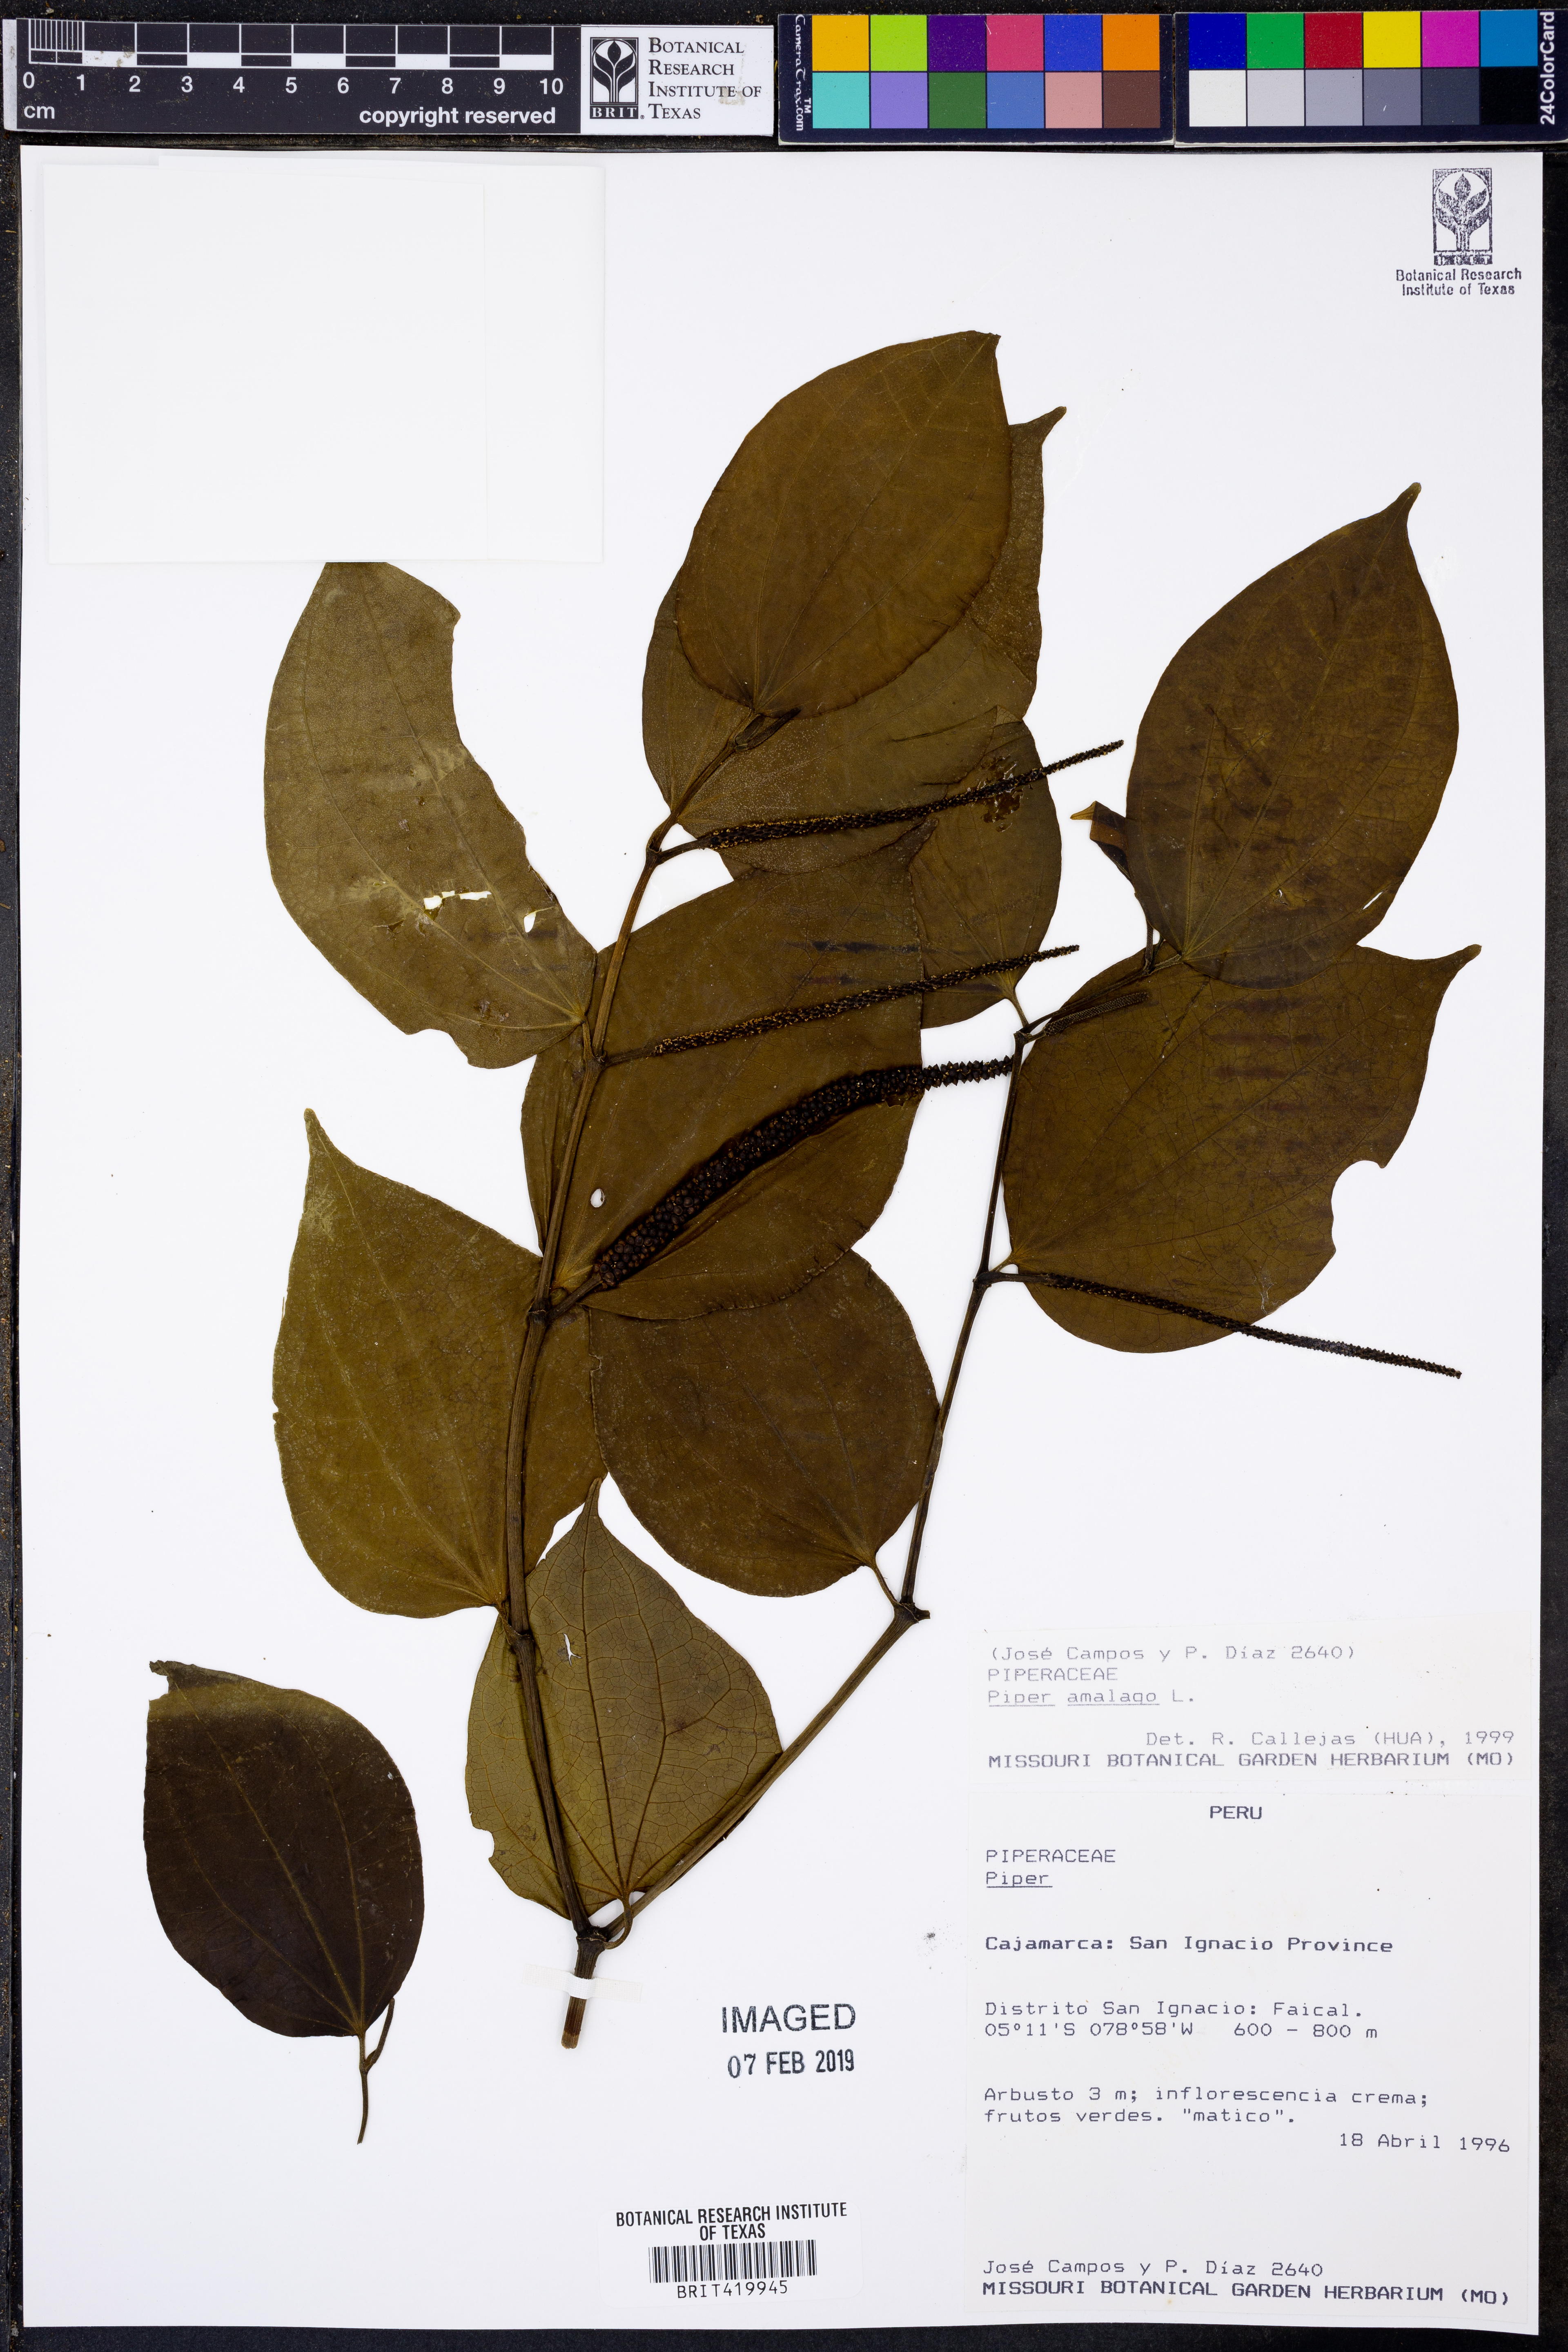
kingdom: Plantae
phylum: Tracheophyta
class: Magnoliopsida
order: Piperales
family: Piperaceae
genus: Piper
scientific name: Piper amalago
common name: Pepper-elder
